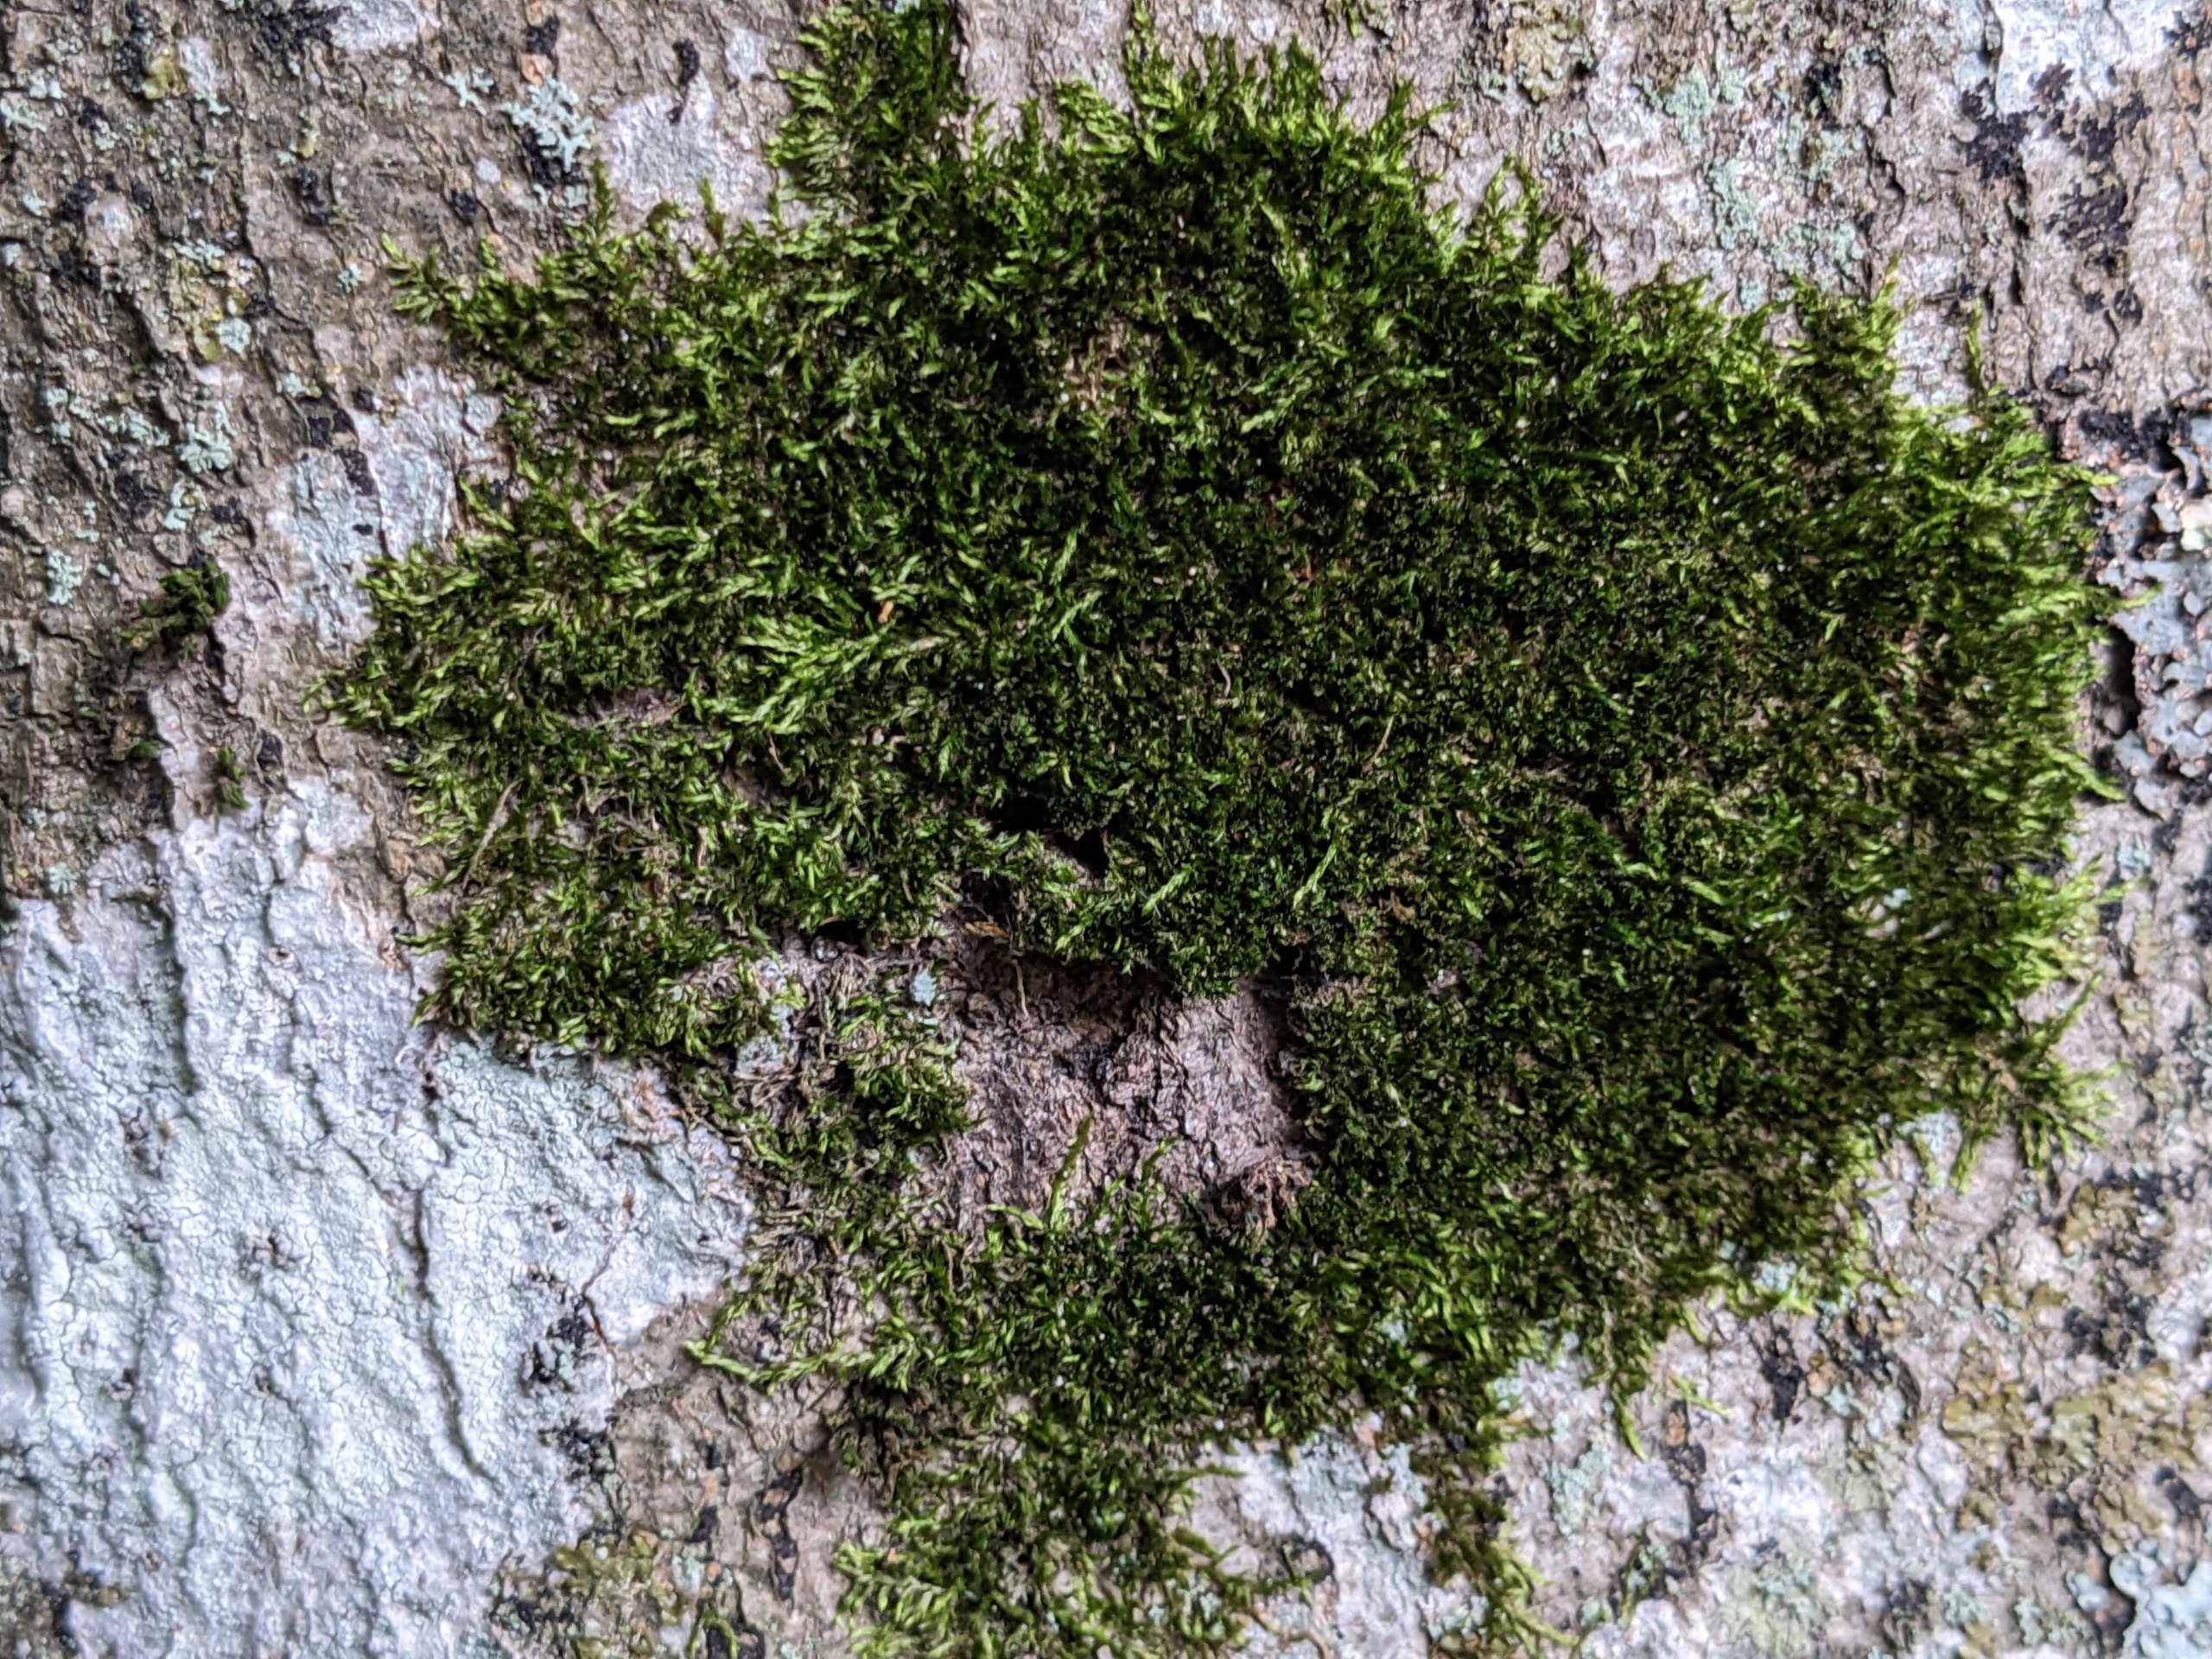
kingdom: Plantae
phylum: Bryophyta
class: Bryopsida
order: Hypnales
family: Pylaisiadelphaceae
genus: Platygyrium
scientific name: Platygyrium repens
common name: Mørk yngleknop
